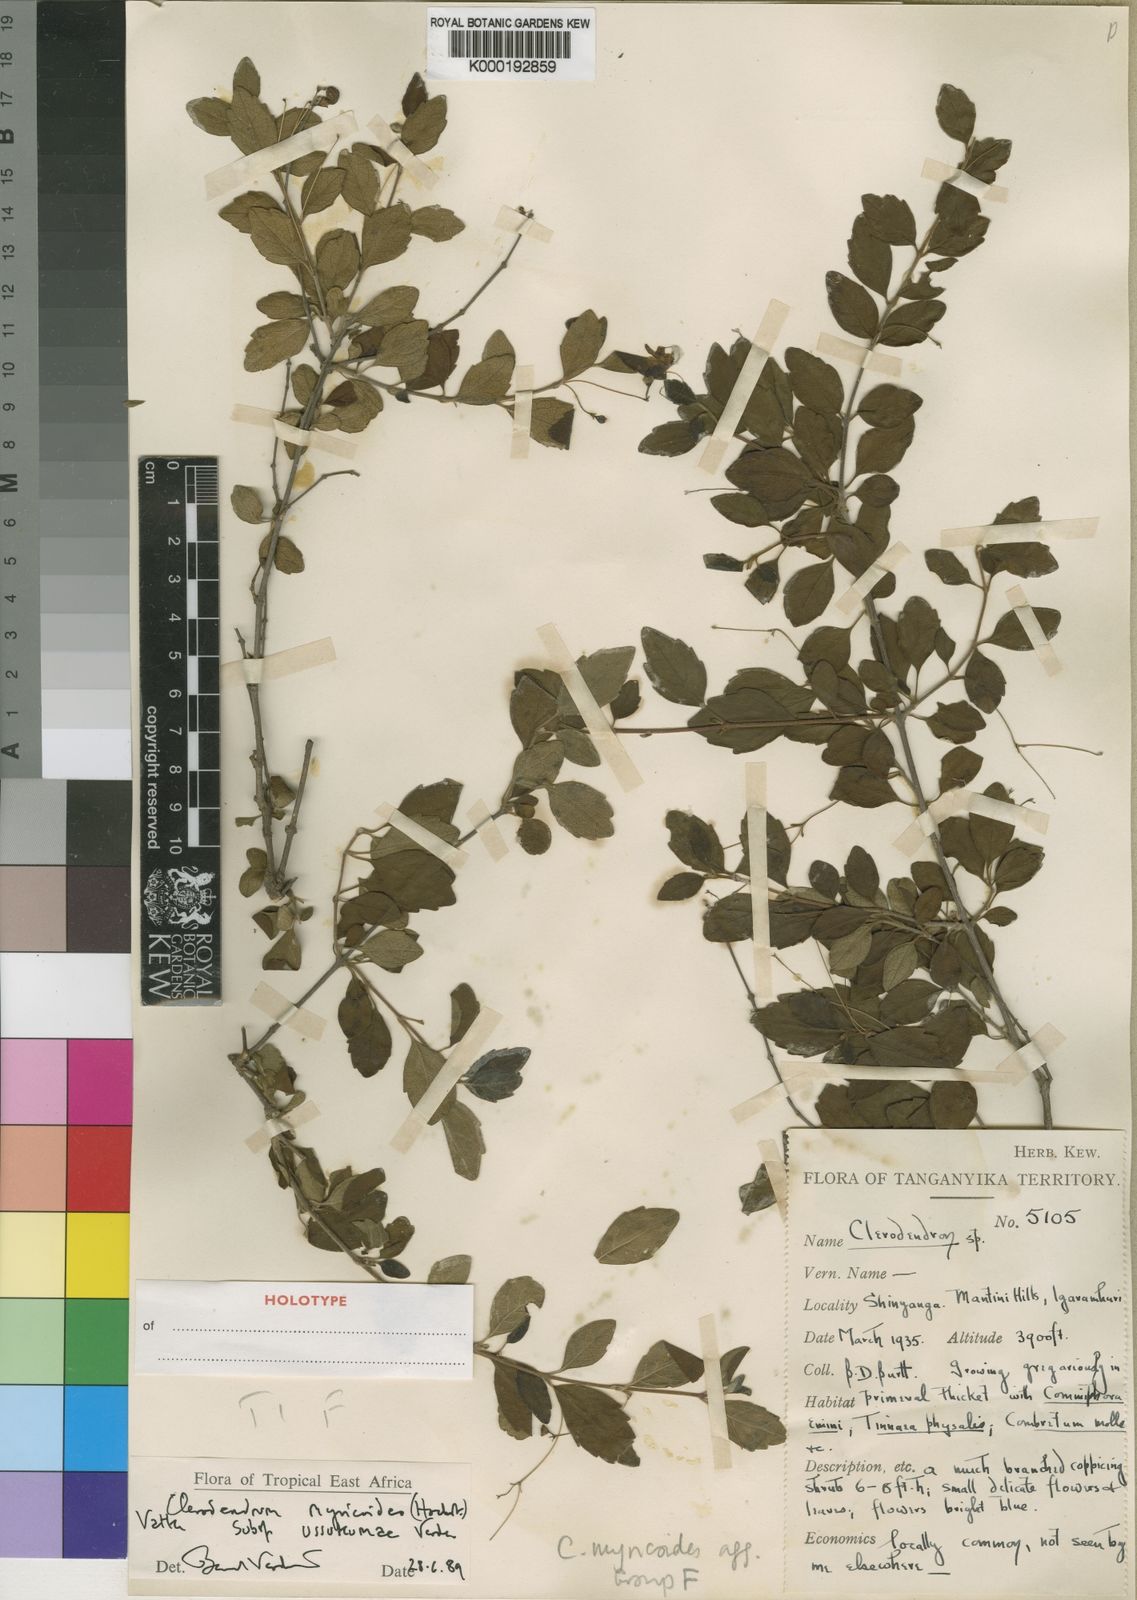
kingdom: Plantae
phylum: Tracheophyta
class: Magnoliopsida
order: Lamiales
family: Lamiaceae
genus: Rotheca
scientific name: Rotheca myricoides
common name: Cats-whiskers
